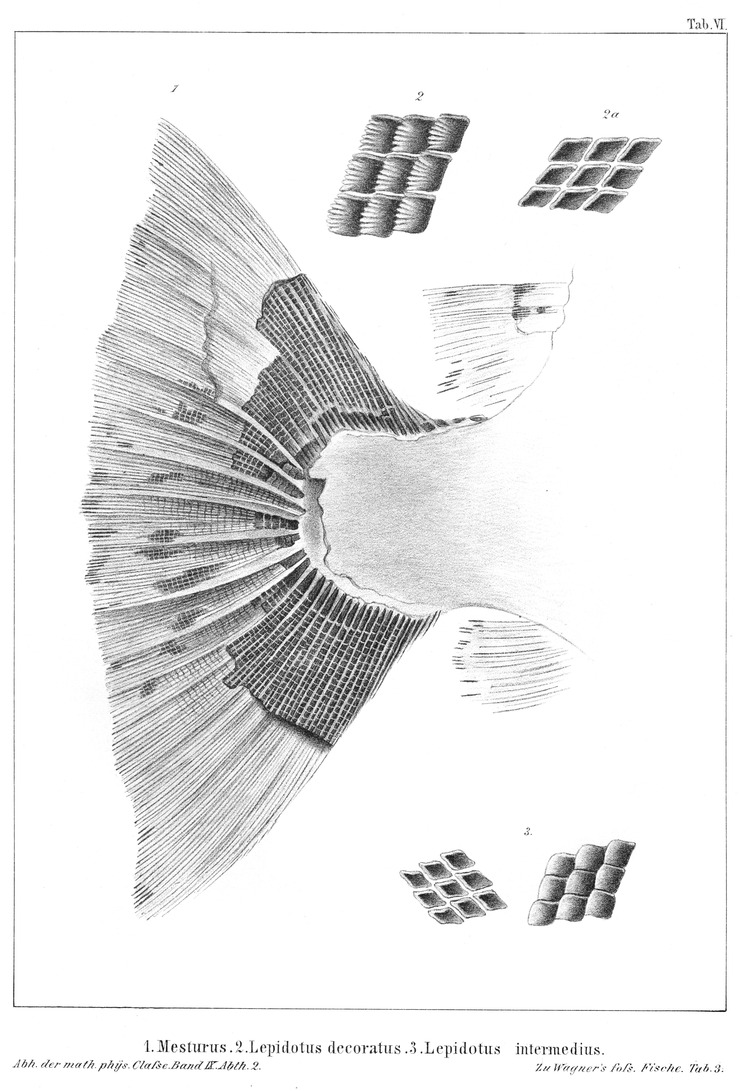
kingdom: Animalia
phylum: Chordata
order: Lepisosteiformes
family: Lepidotidae
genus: Lepidotes
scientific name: Lepidotes intermedius
